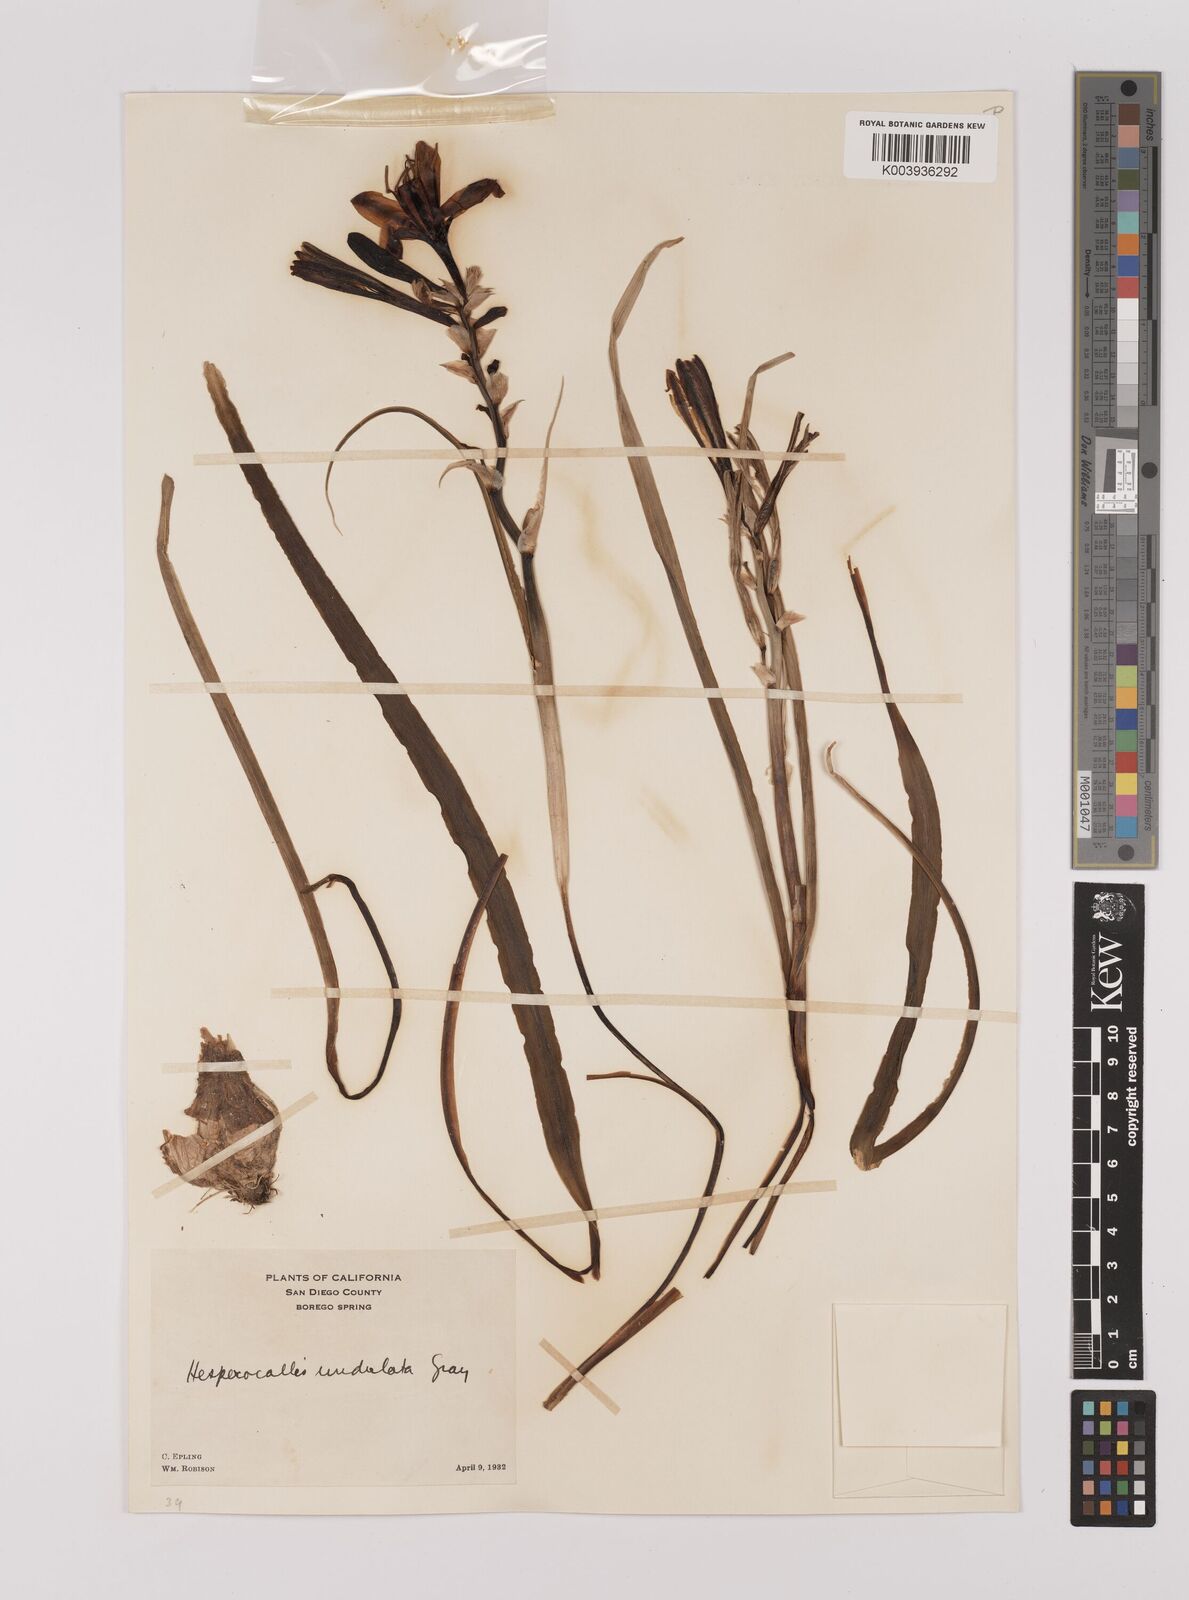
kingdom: Plantae
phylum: Tracheophyta
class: Liliopsida
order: Asparagales
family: Asparagaceae
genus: Hesperocallis
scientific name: Hesperocallis
